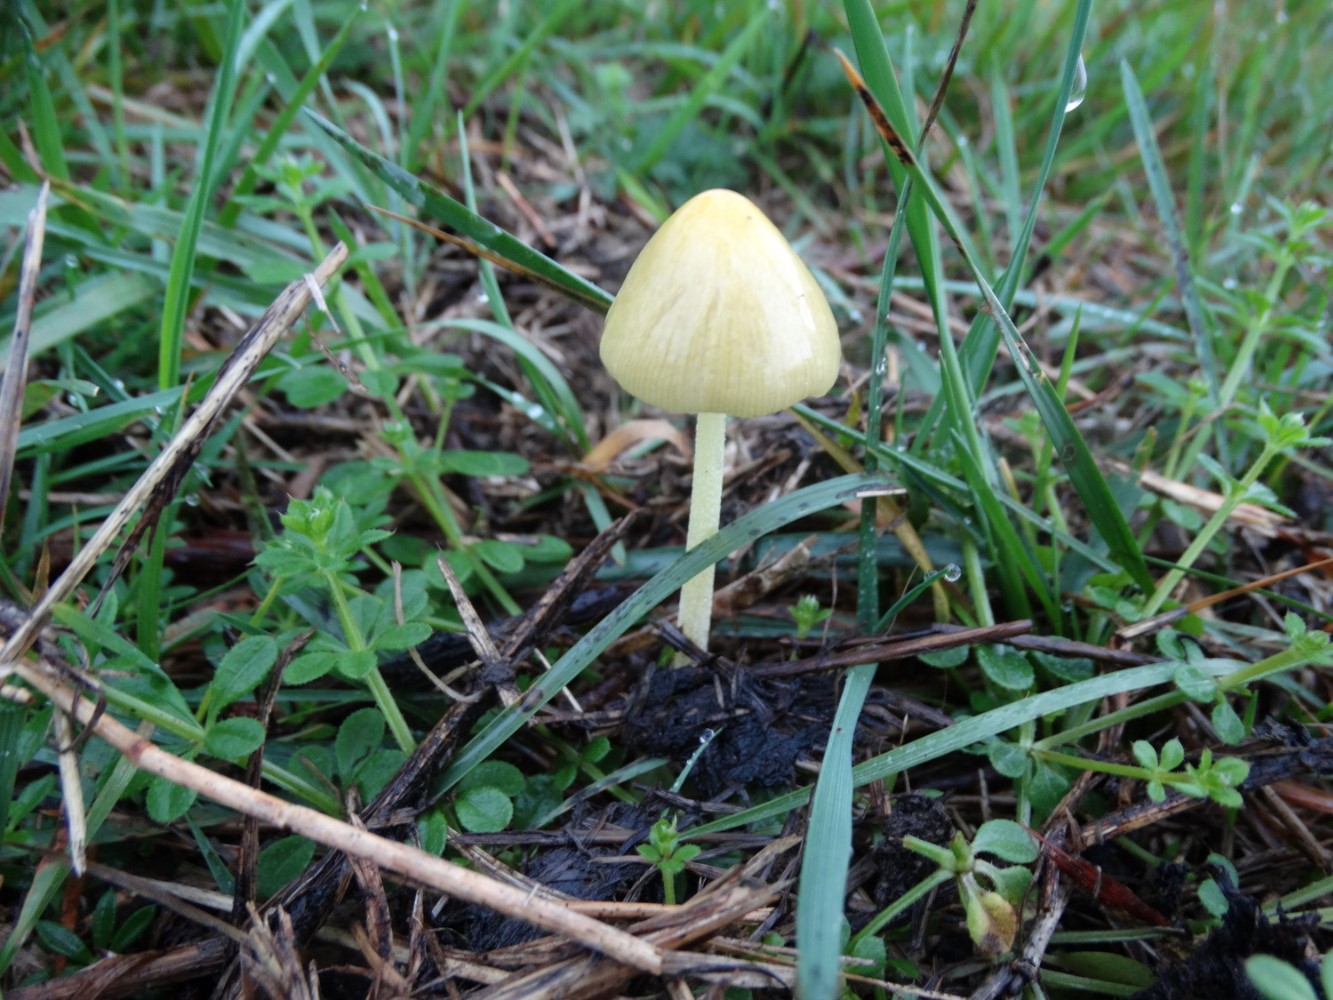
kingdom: Fungi
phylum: Basidiomycota
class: Agaricomycetes
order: Agaricales
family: Bolbitiaceae
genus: Bolbitius
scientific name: Bolbitius titubans
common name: almindelig gulhat
